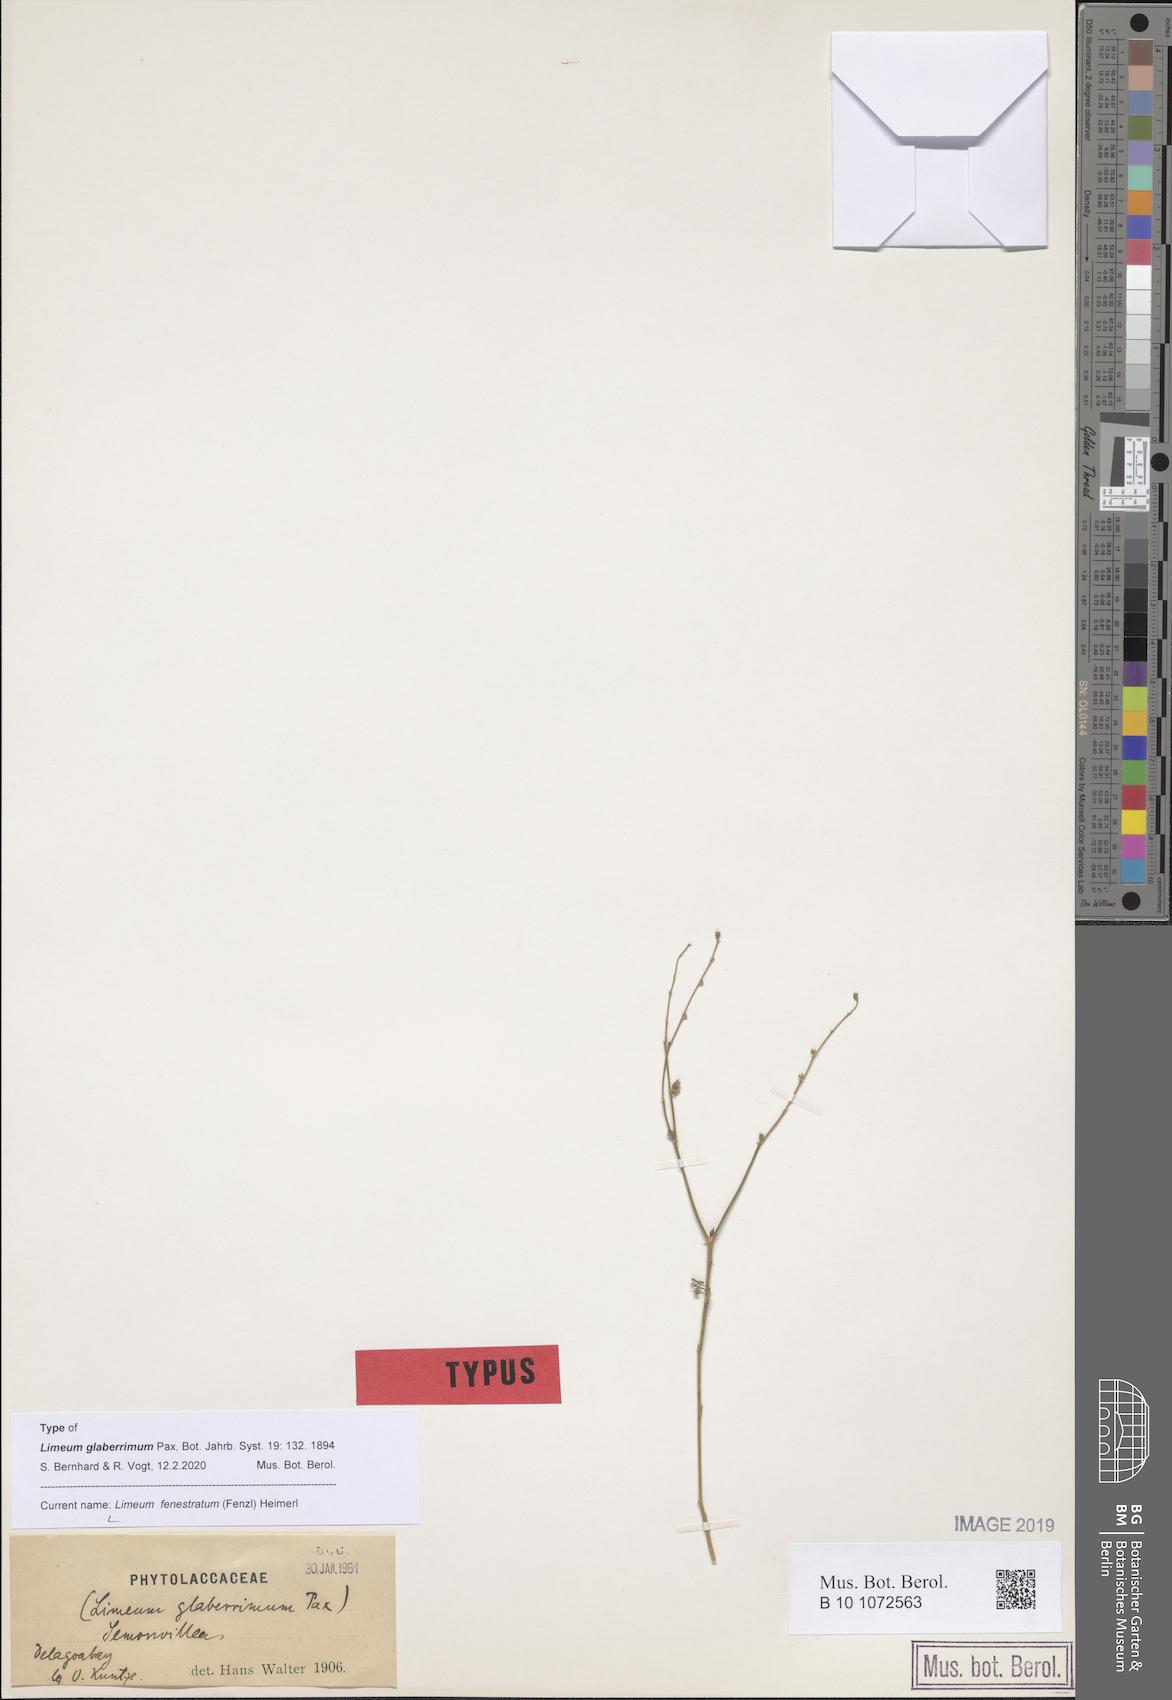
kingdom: Plantae
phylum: Tracheophyta
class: Magnoliopsida
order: Caryophyllales
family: Limeaceae
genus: Limeum
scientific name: Limeum fenestratum
